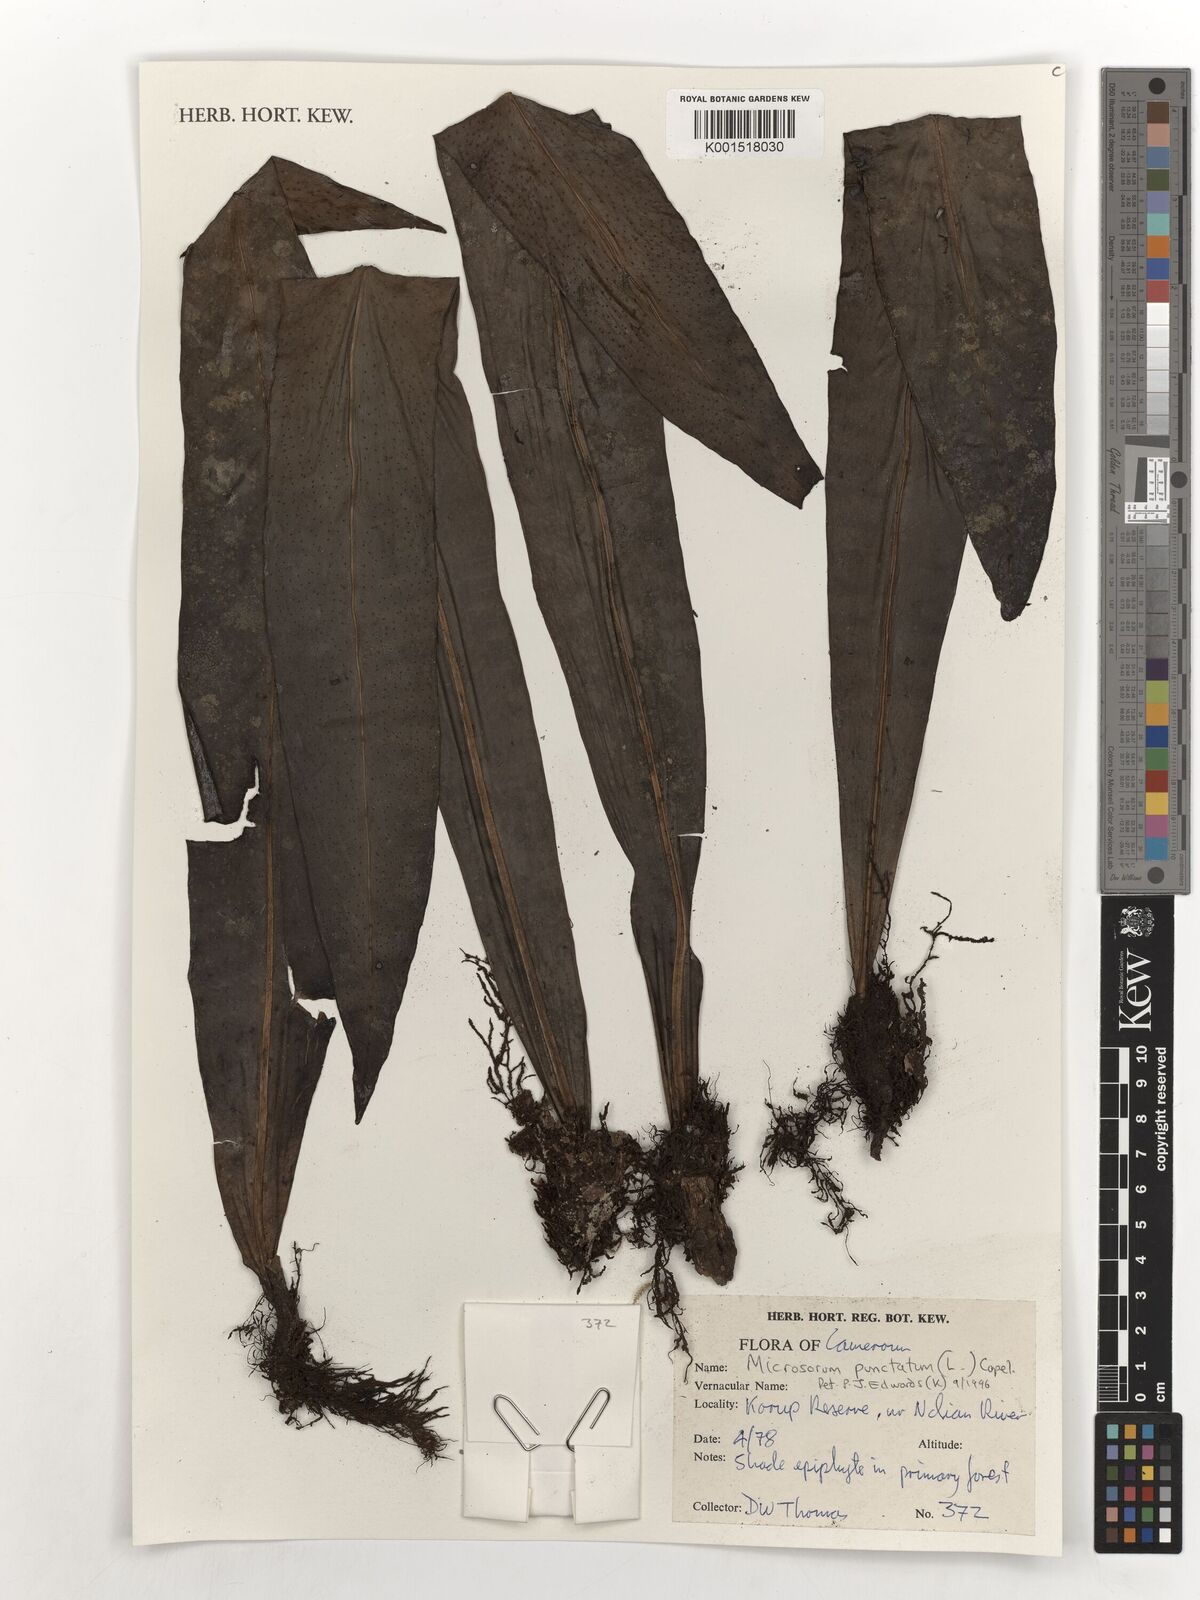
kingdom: Plantae
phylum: Tracheophyta
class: Polypodiopsida
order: Polypodiales
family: Polypodiaceae
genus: Microsorum
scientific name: Microsorum punctatum
